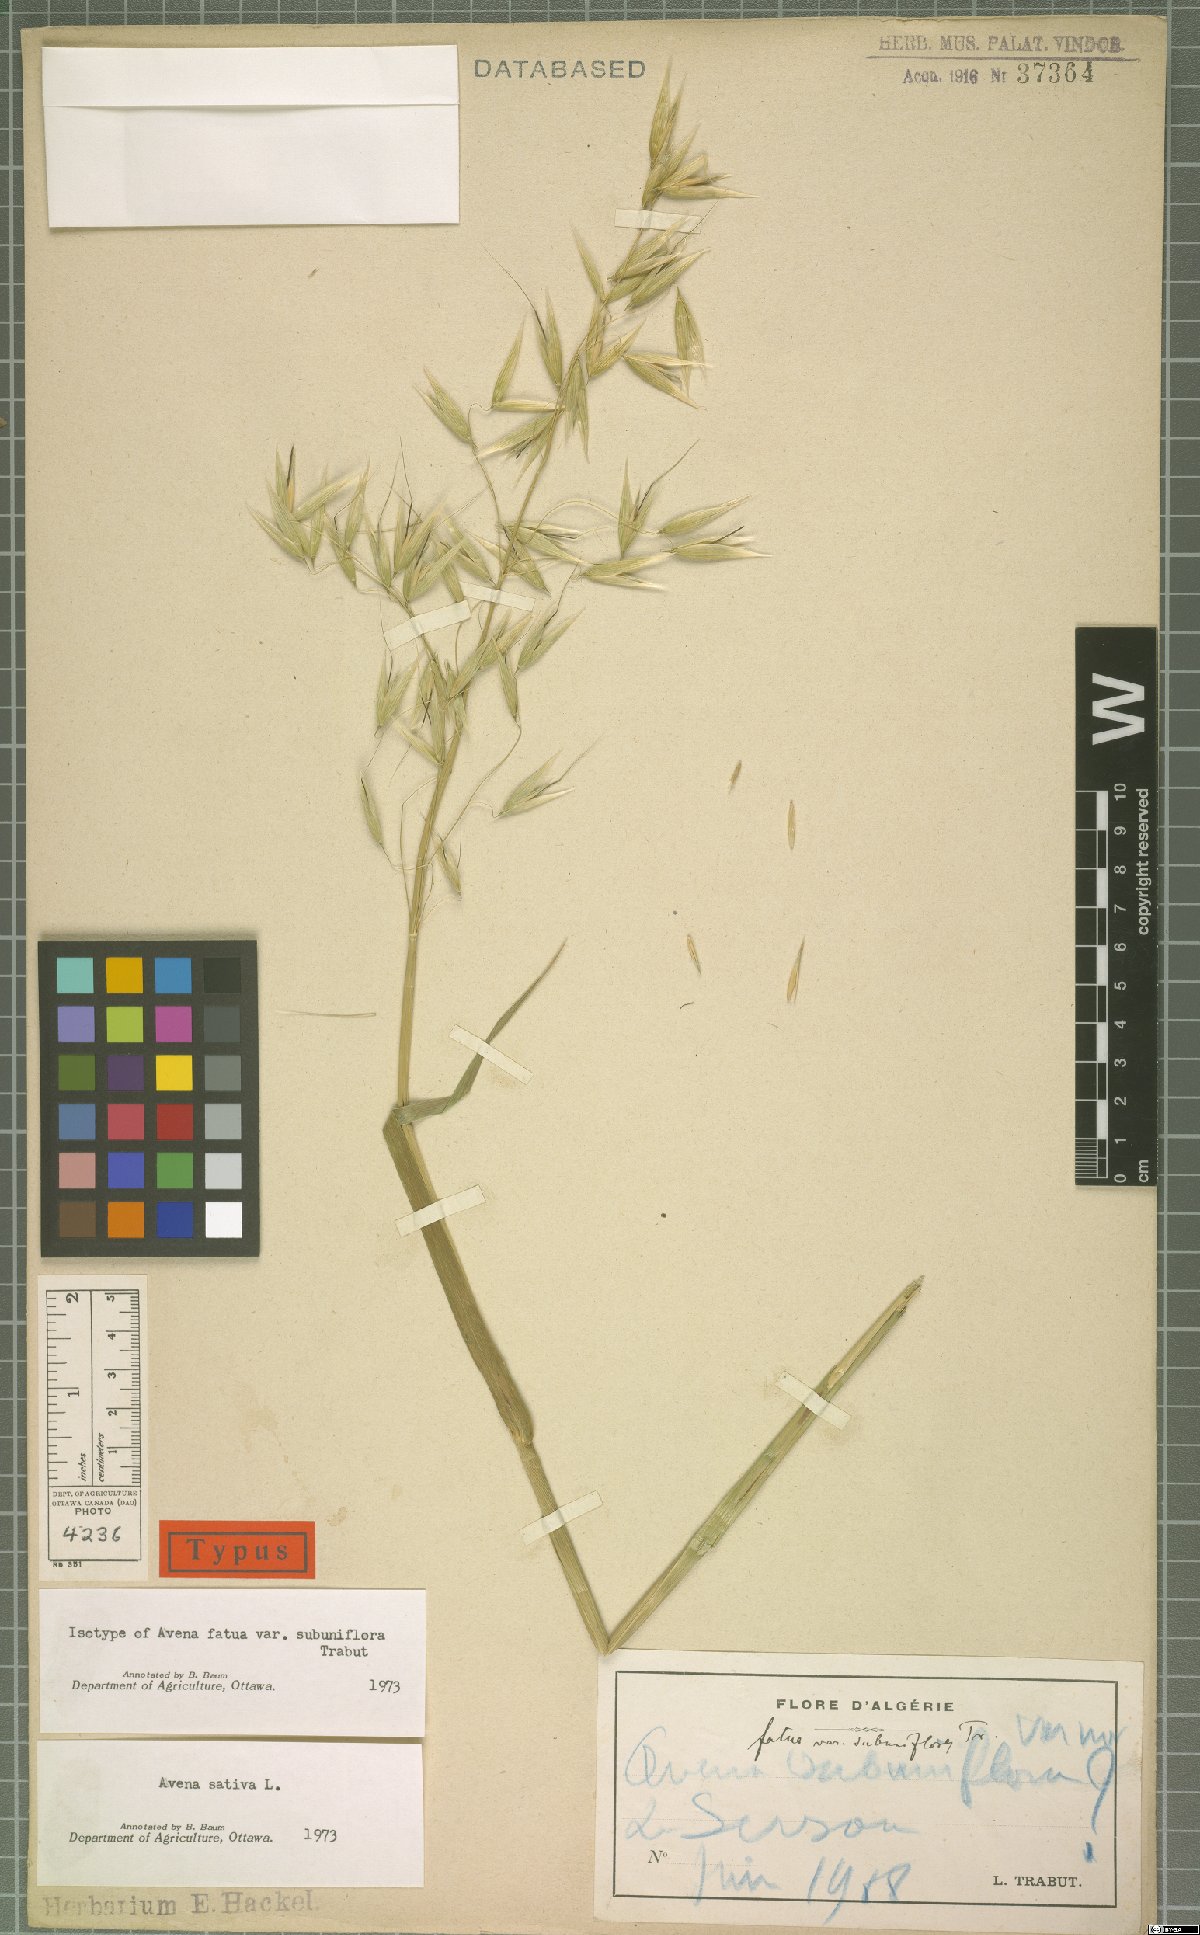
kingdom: Plantae
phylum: Tracheophyta
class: Liliopsida
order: Poales
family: Poaceae
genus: Avena
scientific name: Avena sativa
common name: Oat
